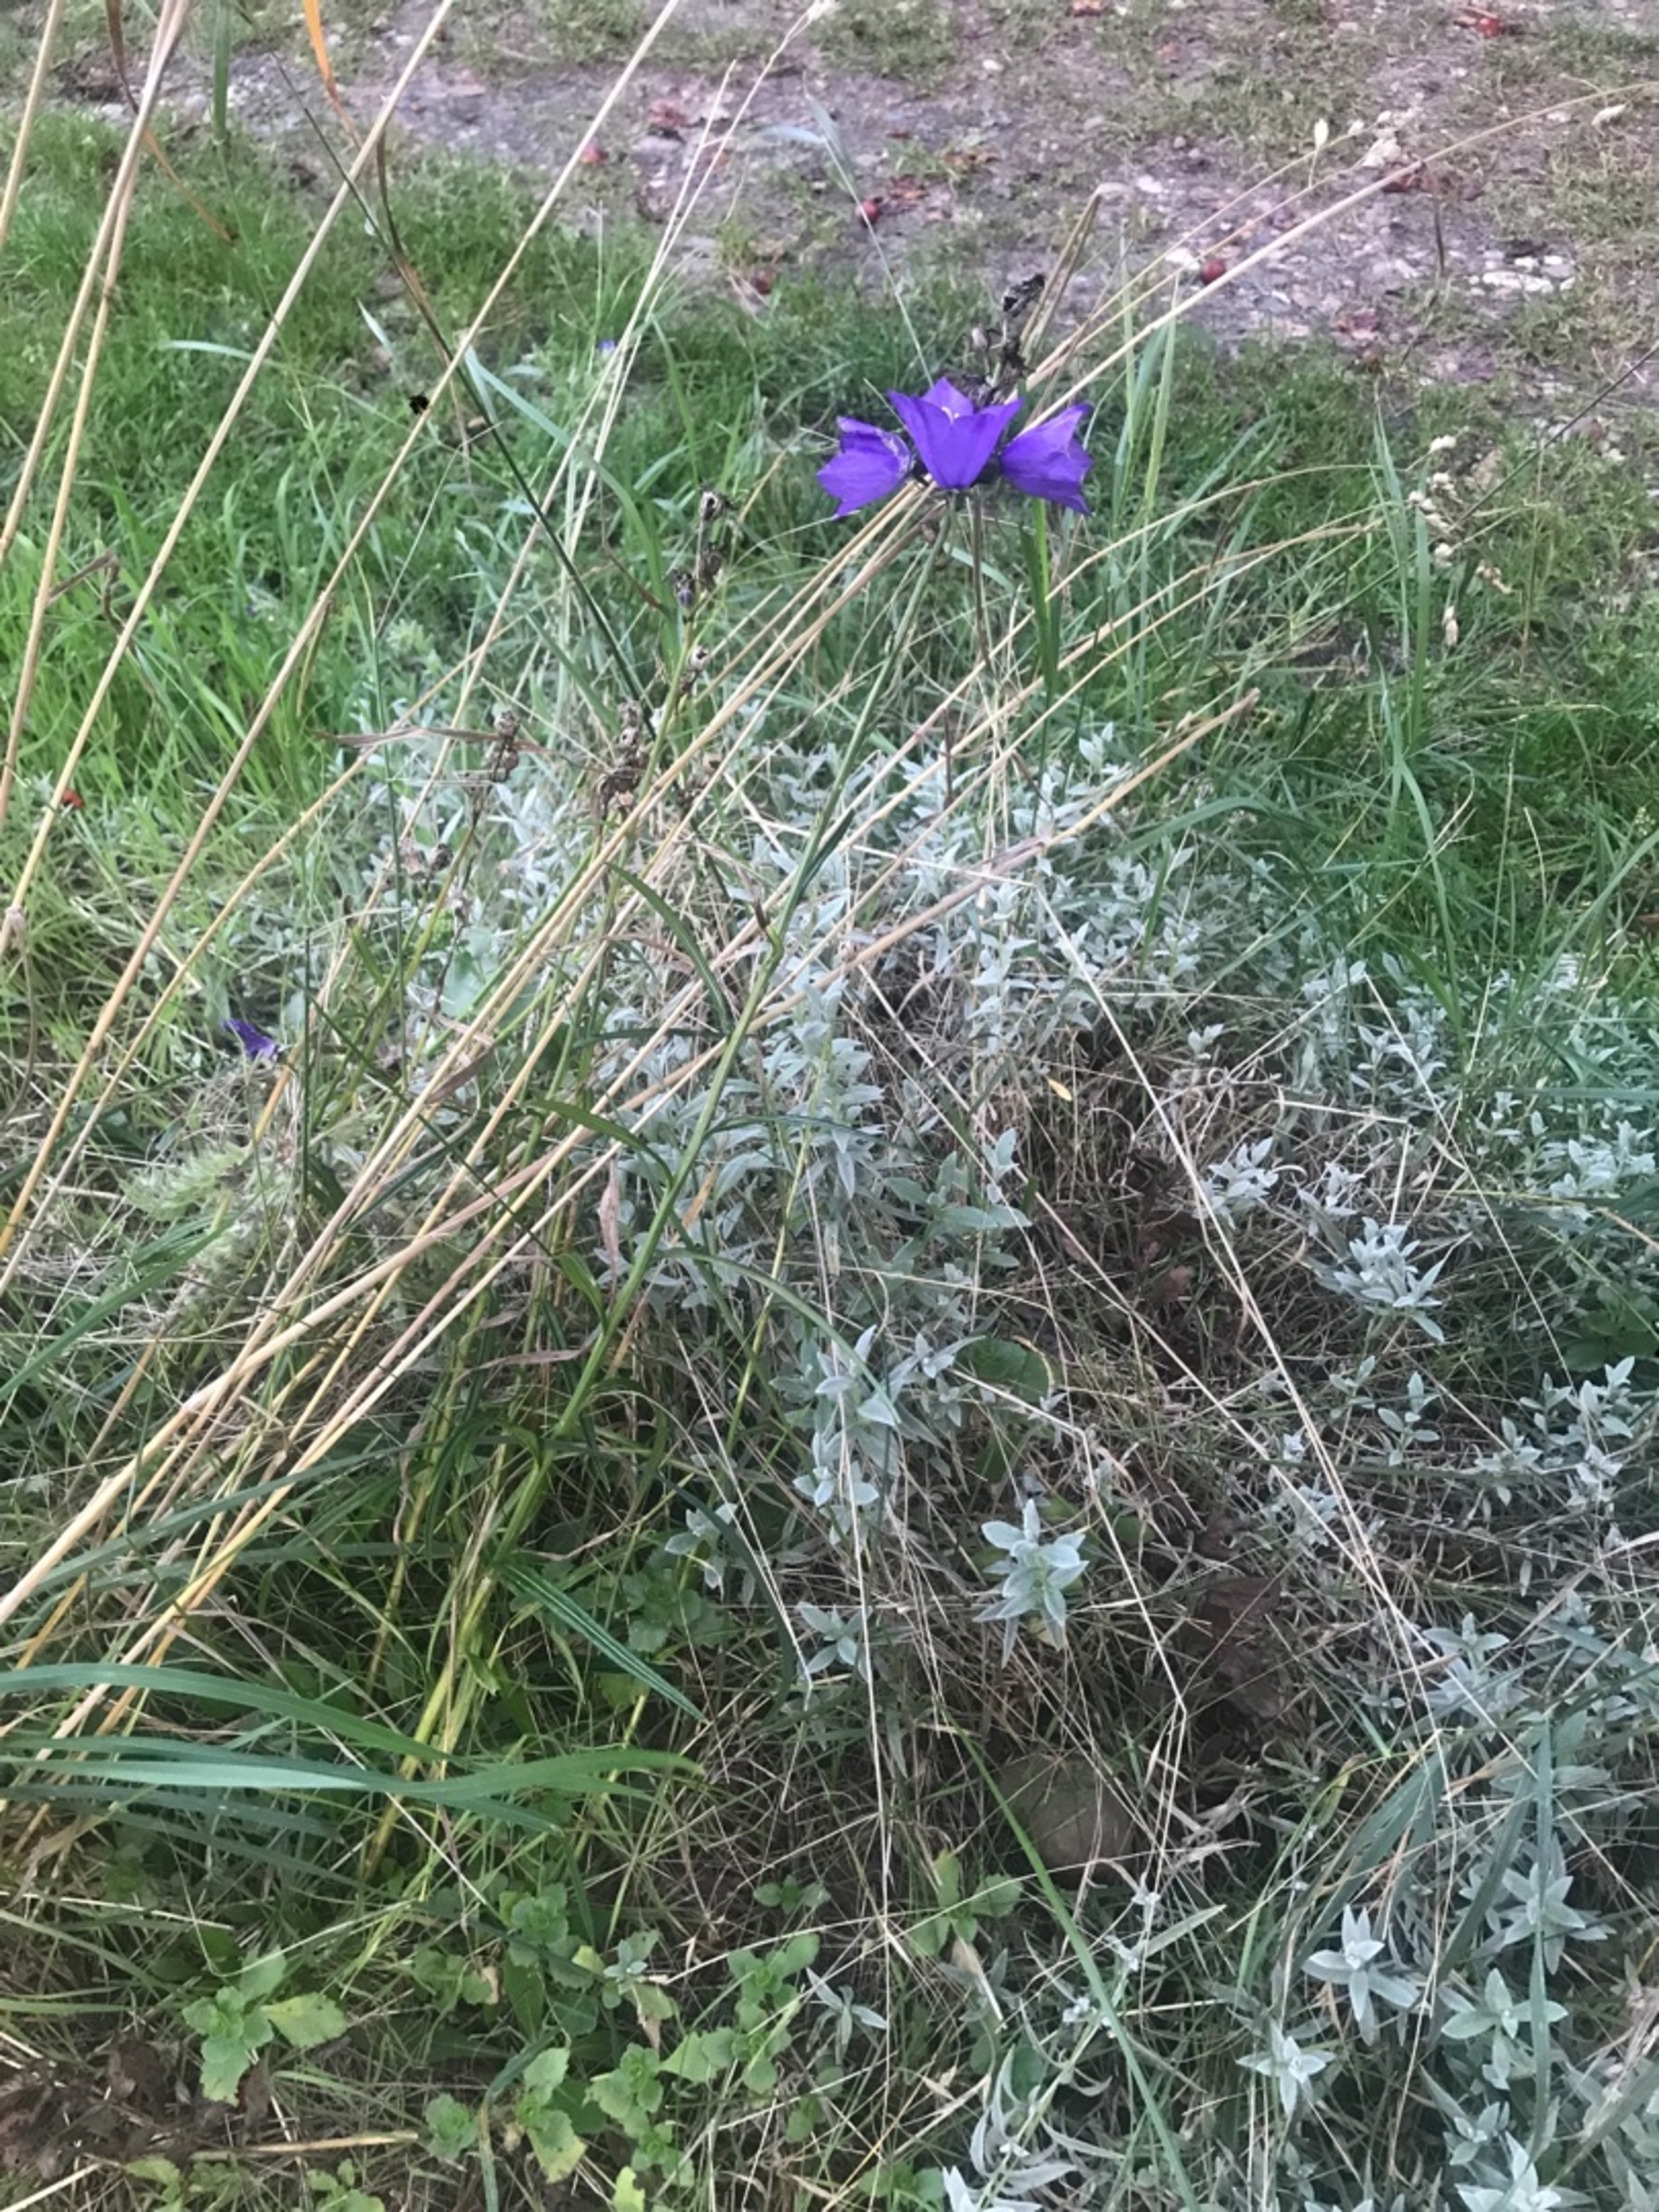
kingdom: Plantae
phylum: Tracheophyta
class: Magnoliopsida
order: Asterales
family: Campanulaceae
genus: Campanula
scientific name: Campanula persicifolia
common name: Smalbladet klokke
